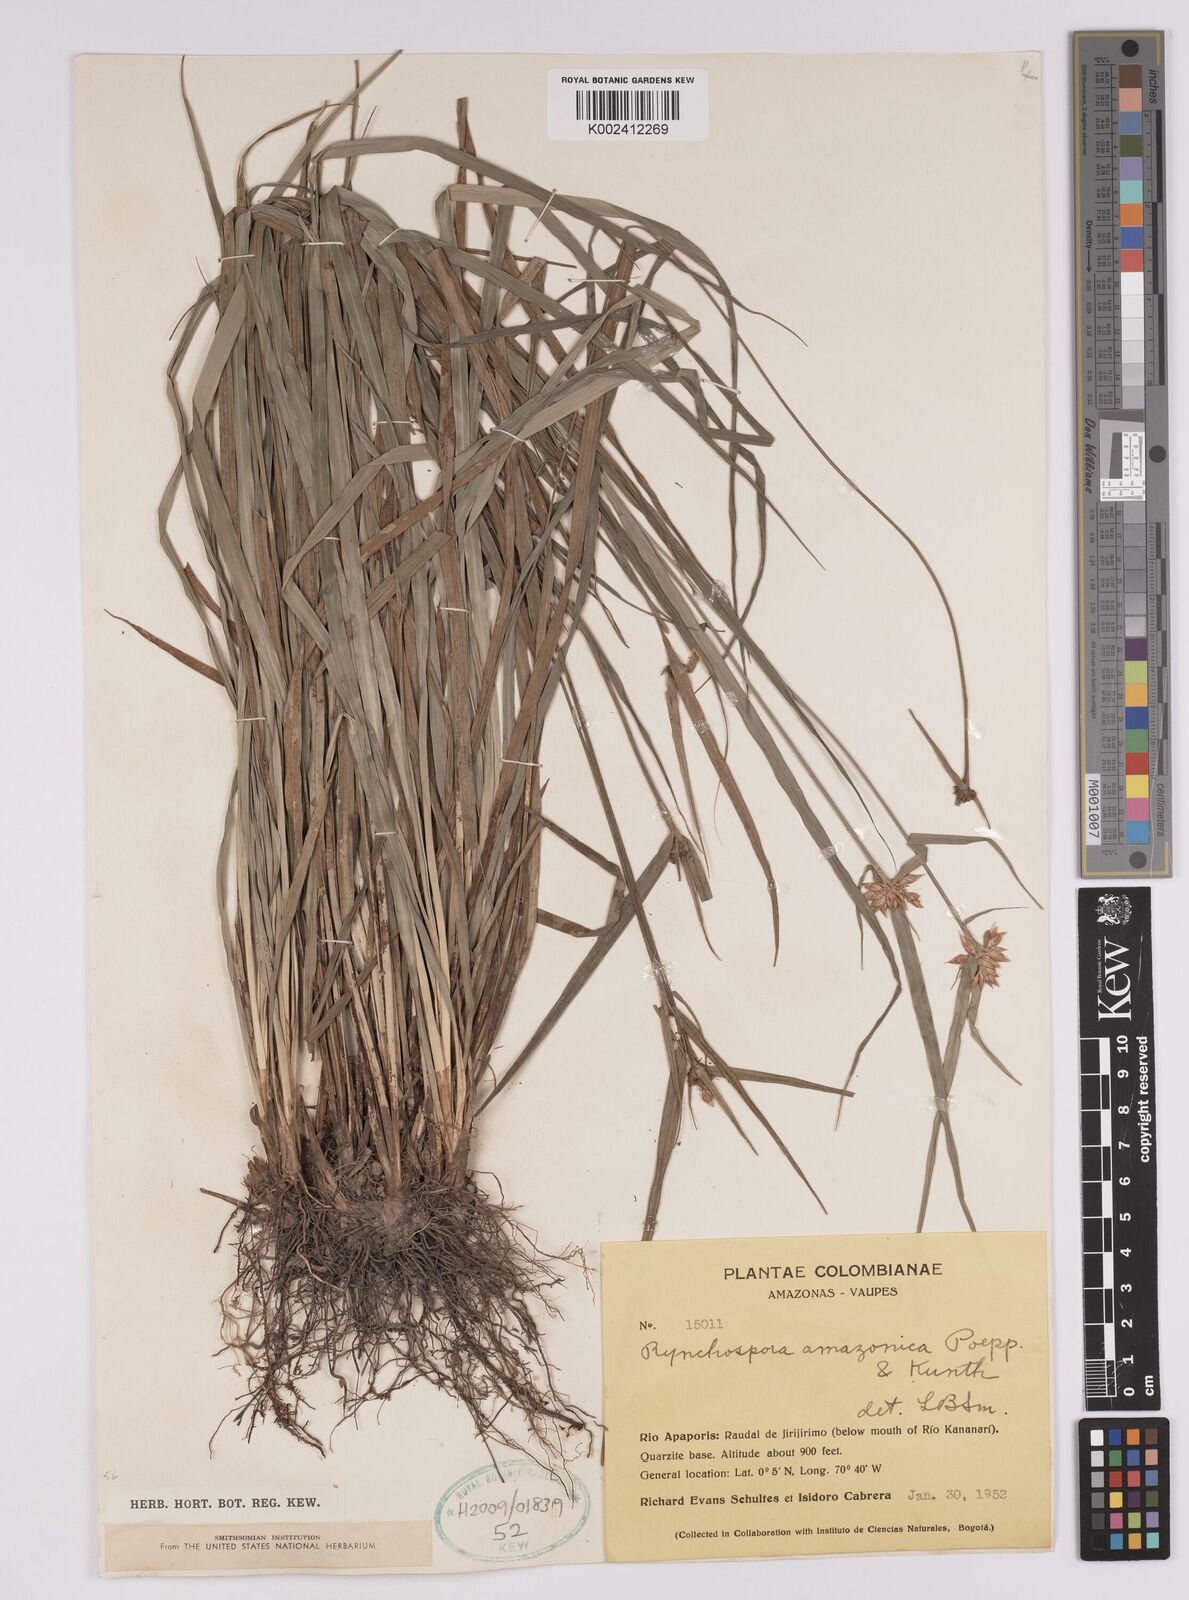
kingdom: Plantae
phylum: Tracheophyta
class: Liliopsida
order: Poales
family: Cyperaceae
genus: Rhynchospora
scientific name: Rhynchospora amazonica
